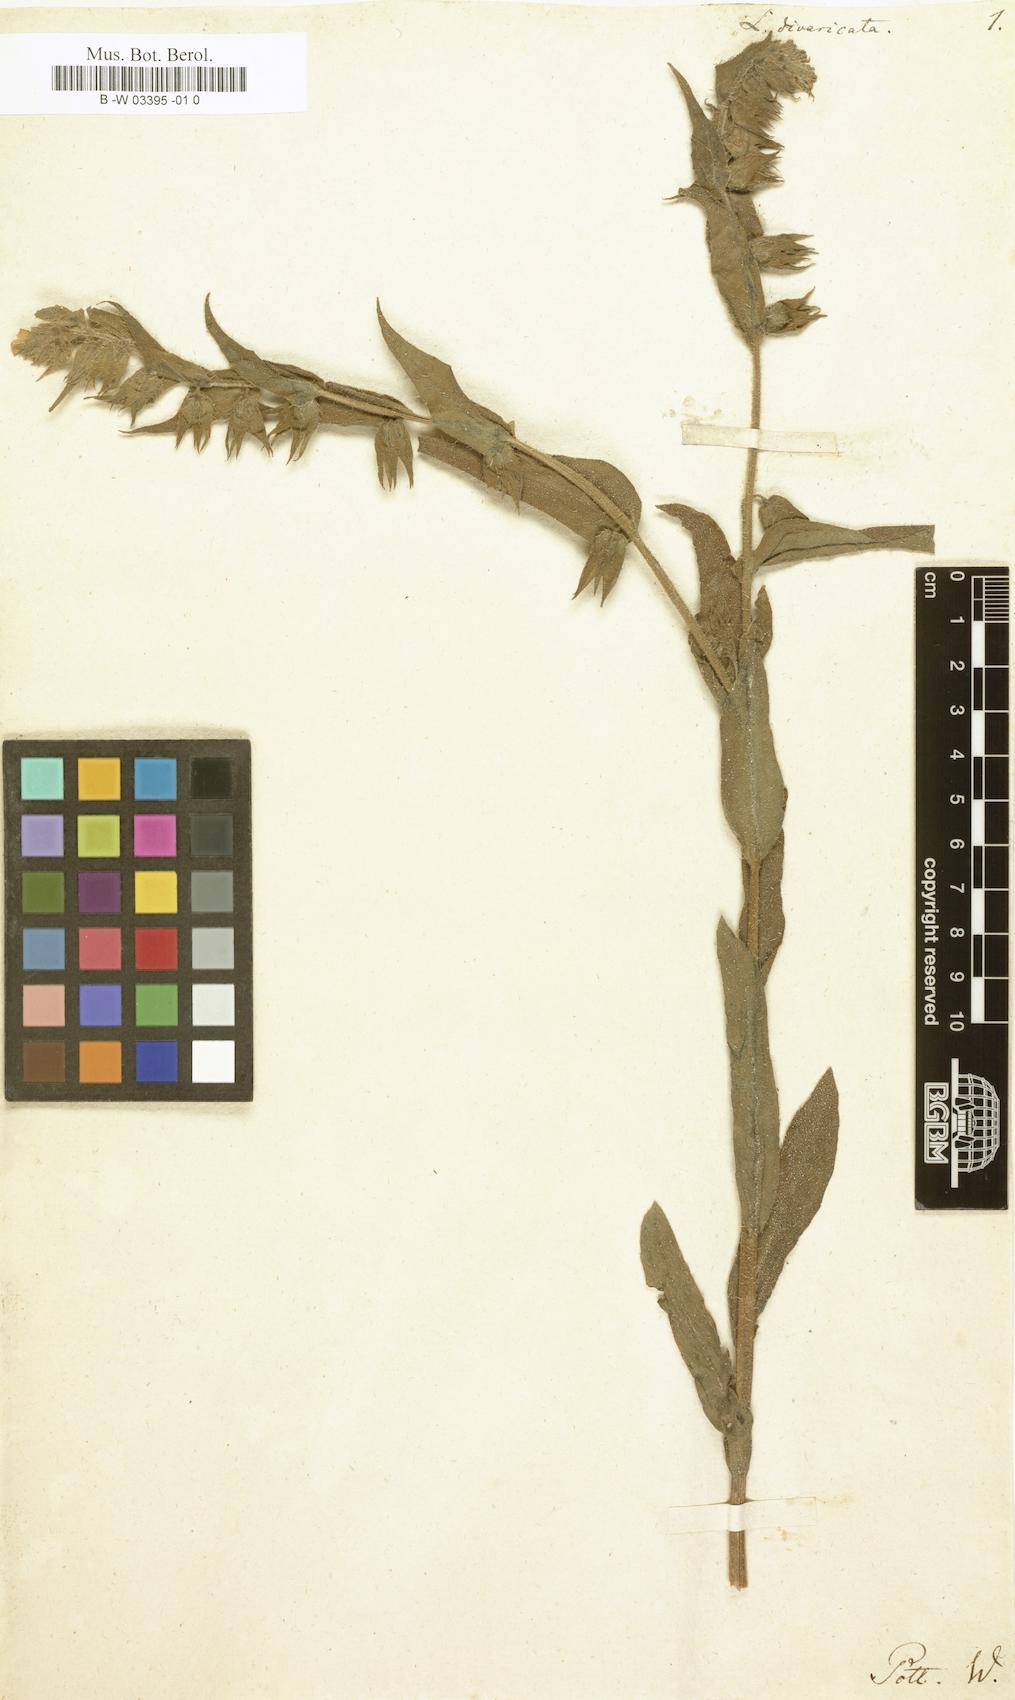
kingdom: Plantae
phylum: Tracheophyta
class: Magnoliopsida
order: Boraginales
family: Boraginaceae
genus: Lycopsis
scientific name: Lycopsis
